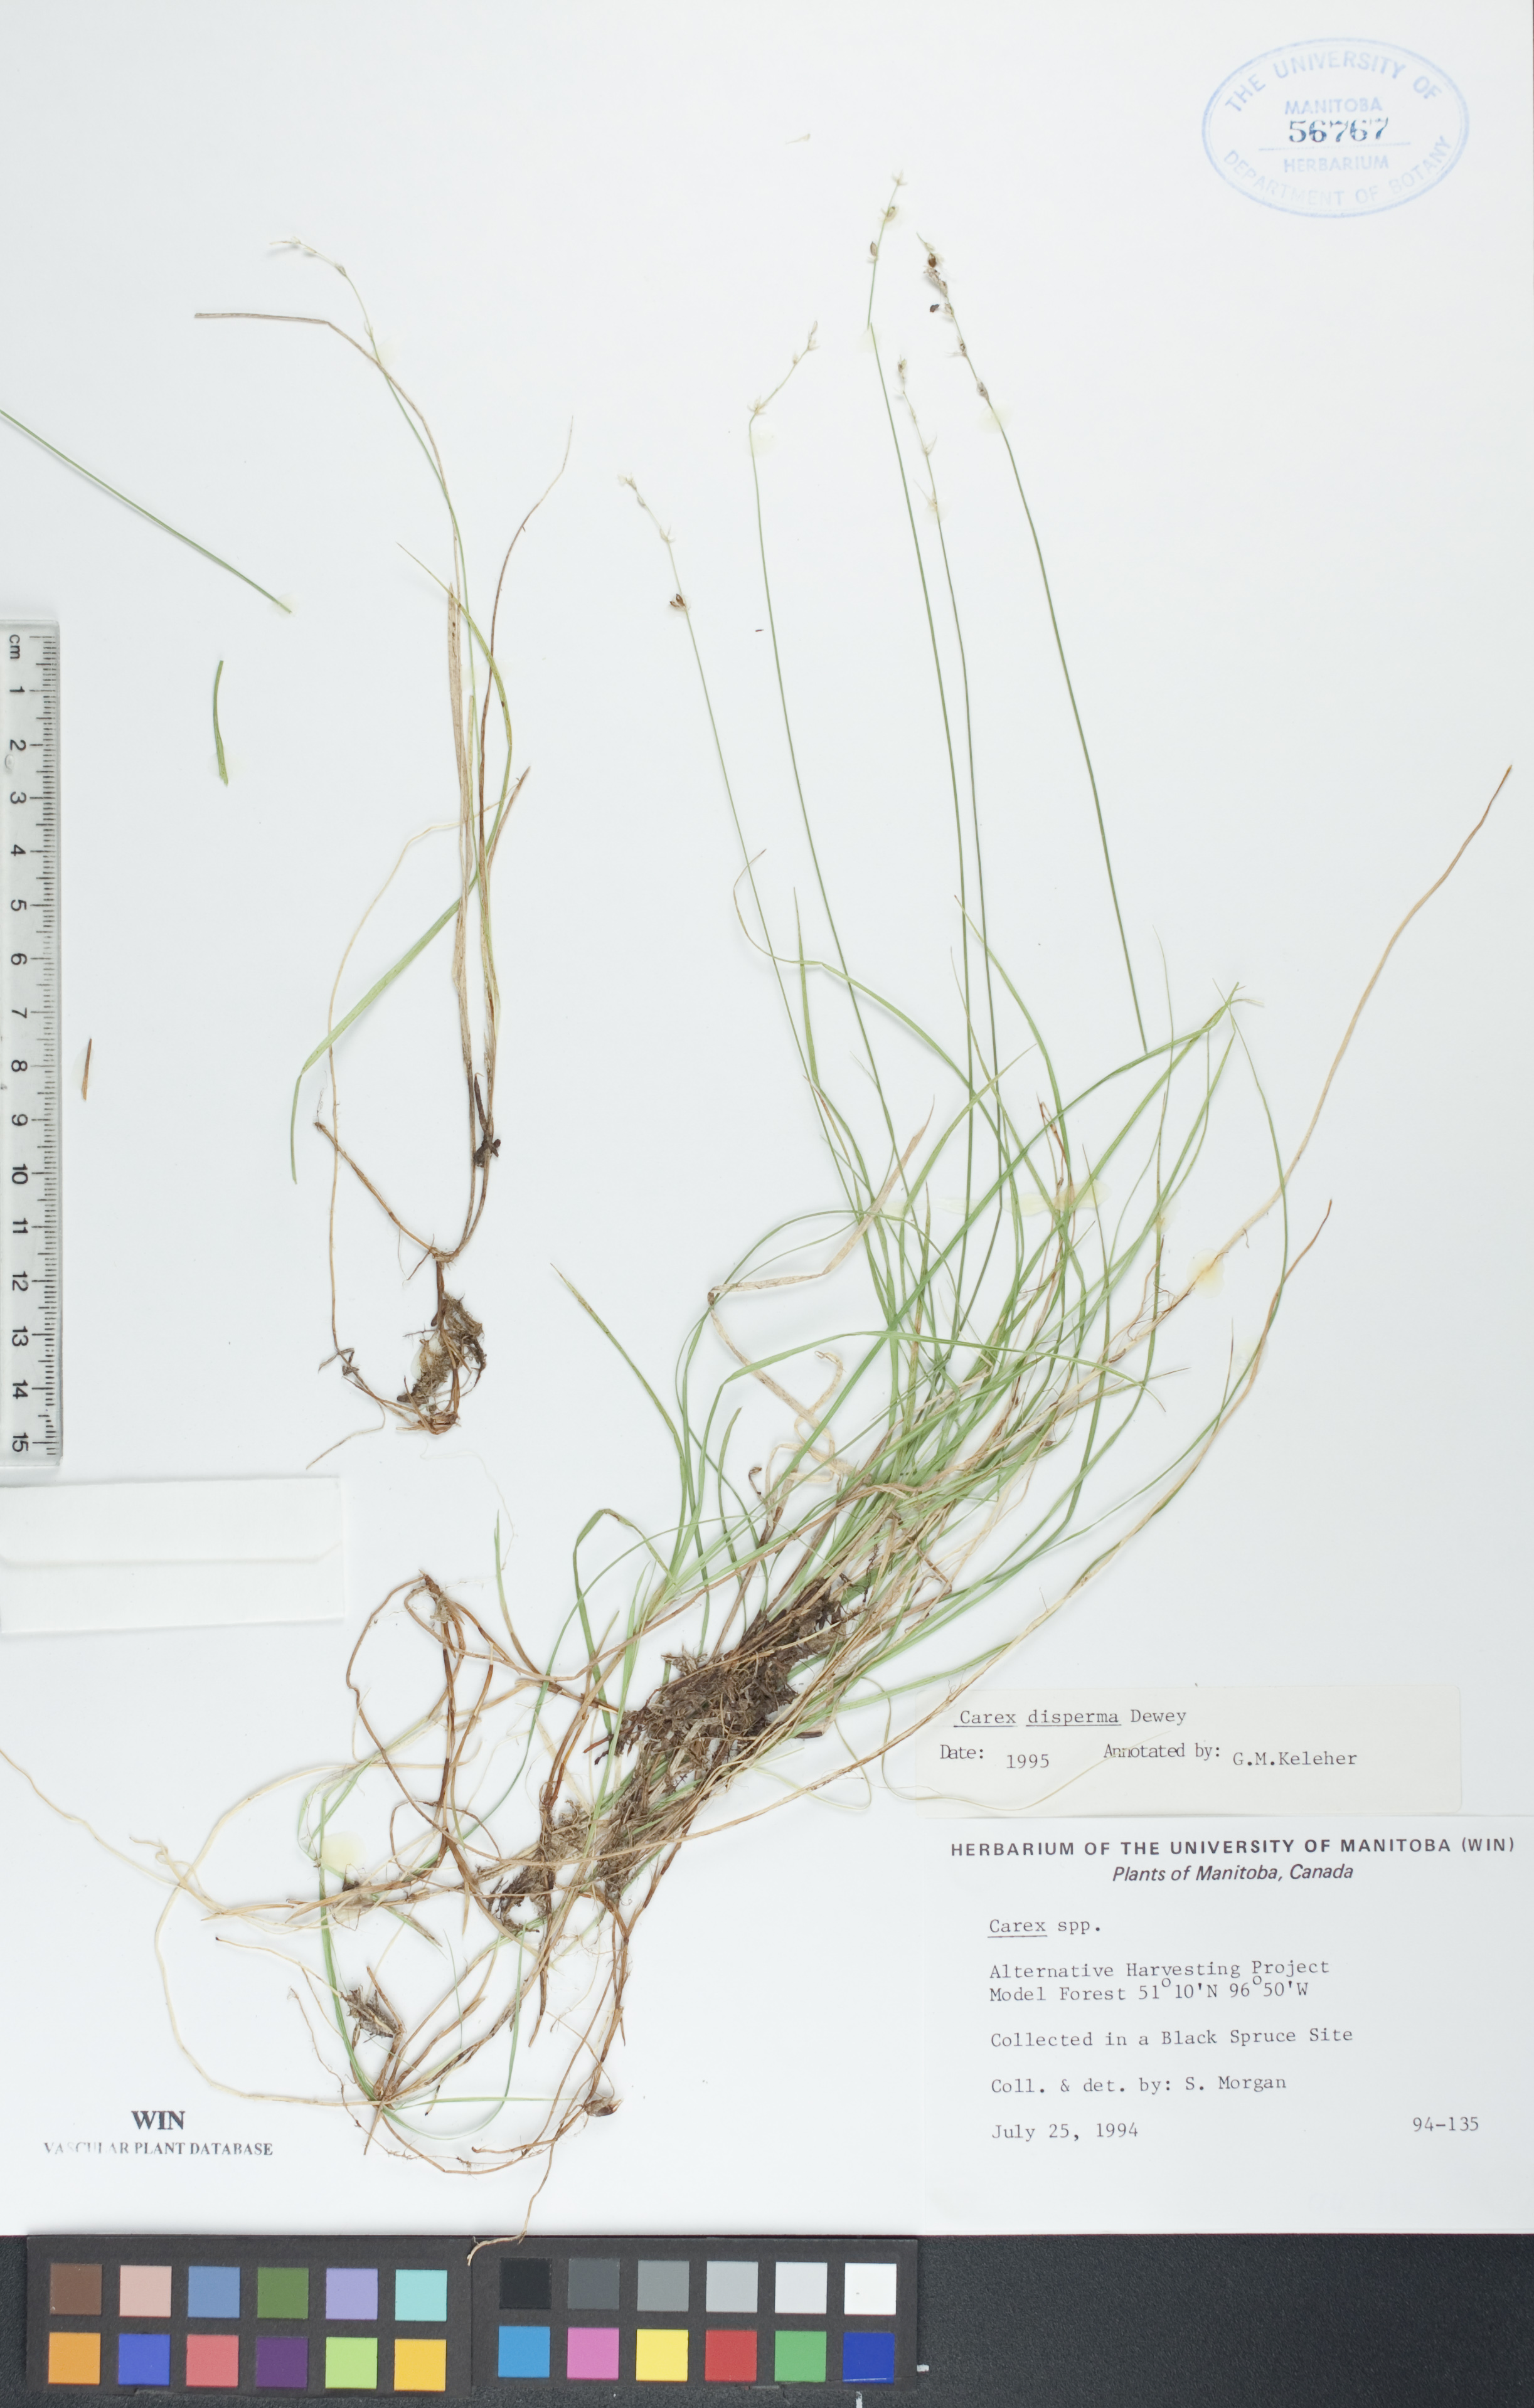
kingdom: Plantae
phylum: Tracheophyta
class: Liliopsida
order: Poales
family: Cyperaceae
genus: Carex
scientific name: Carex disperma
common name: Short-leaved sedge
